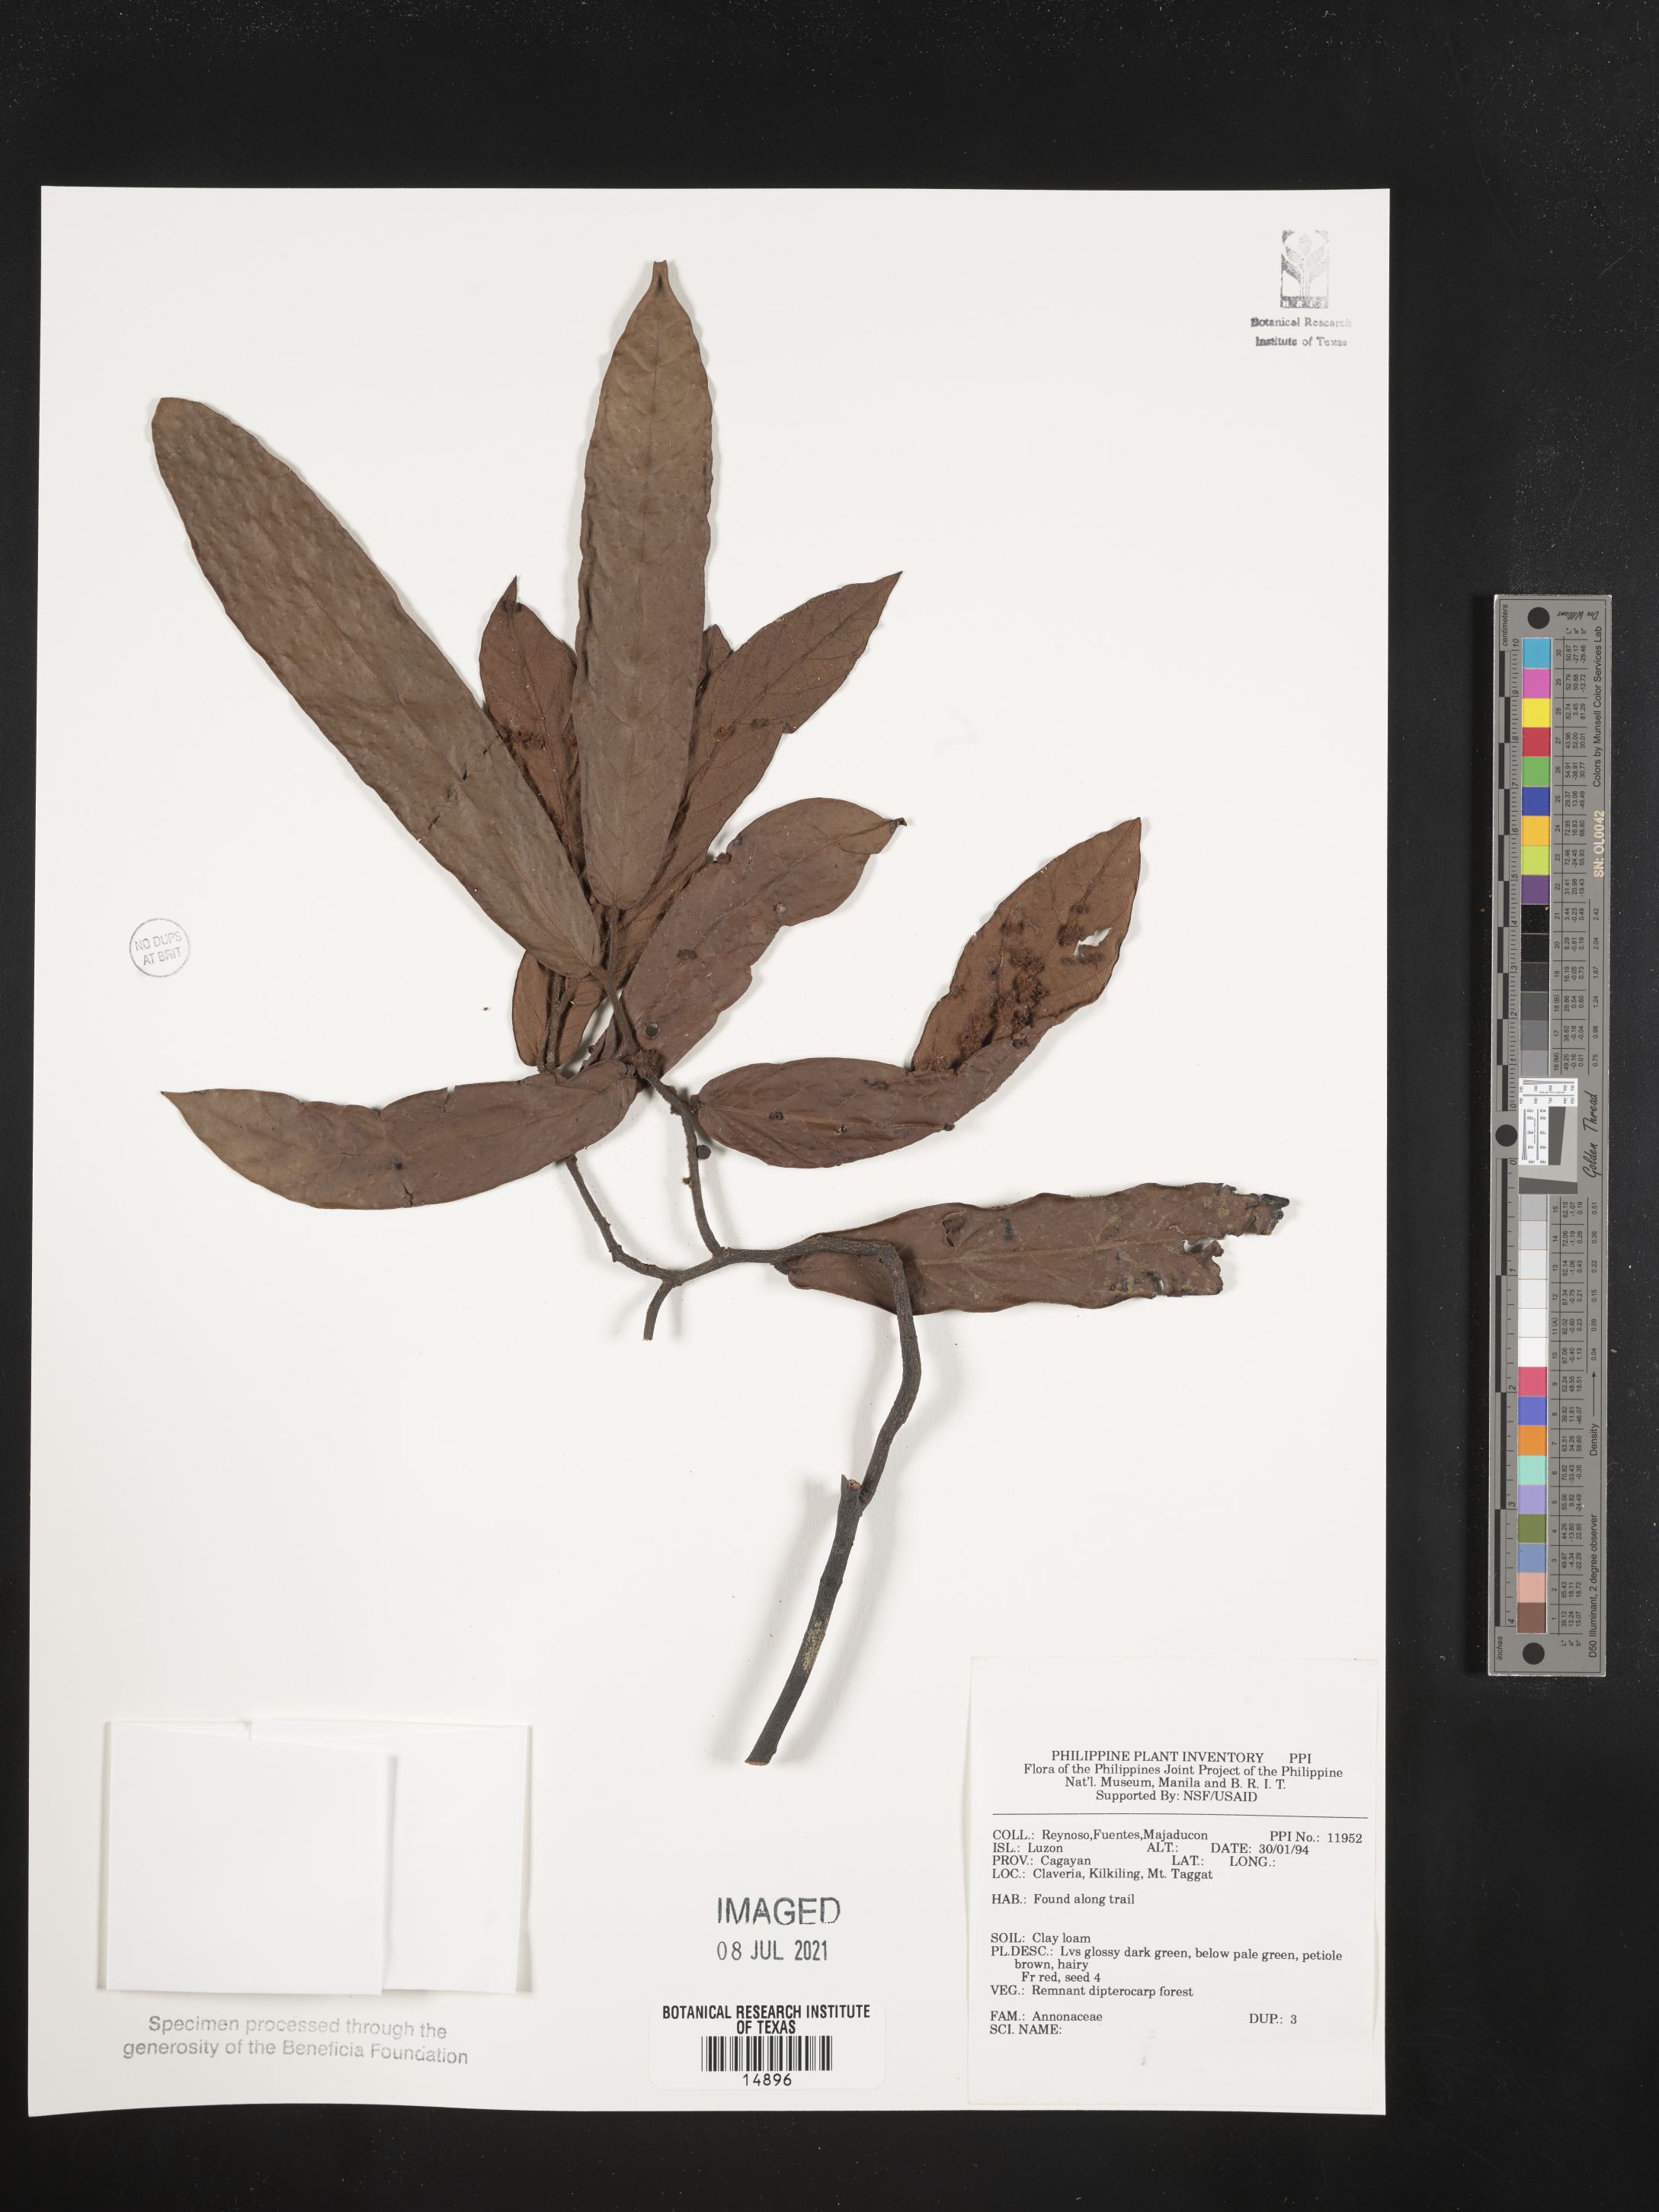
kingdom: Plantae
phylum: Tracheophyta
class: Magnoliopsida
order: Magnoliales
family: Annonaceae
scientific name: Annonaceae
